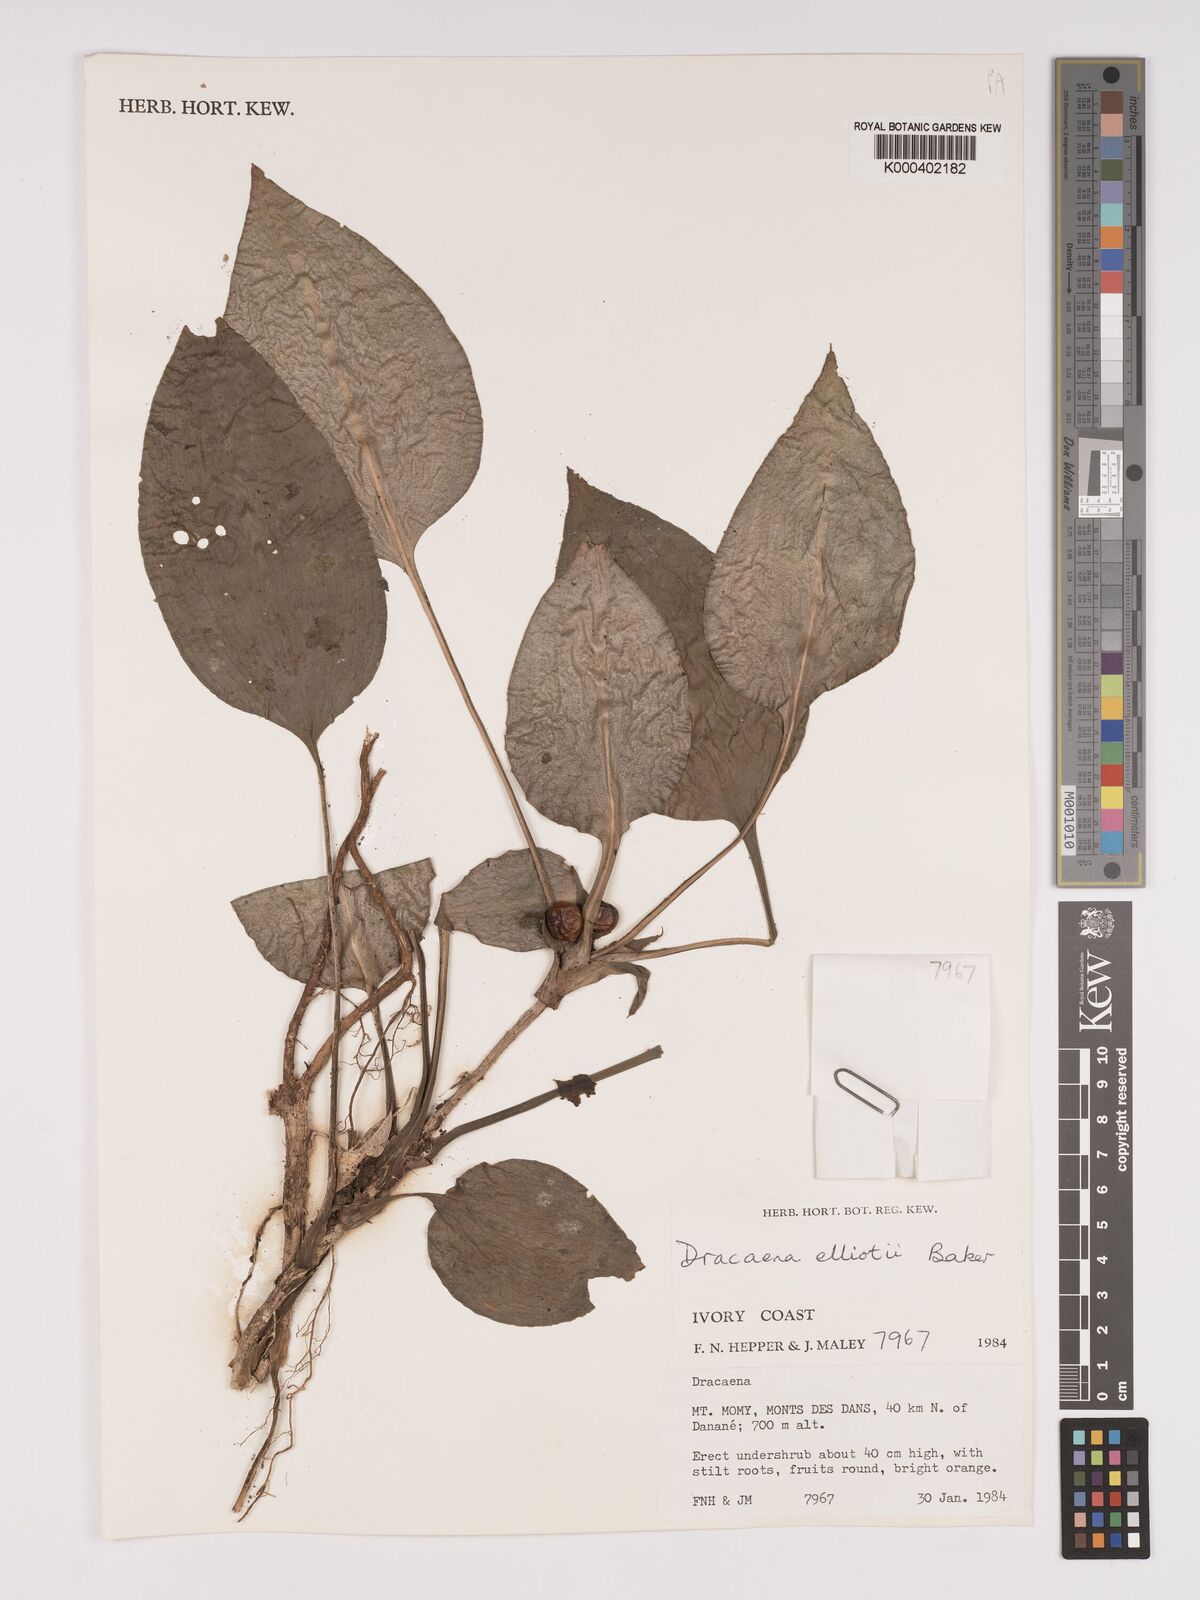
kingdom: Plantae
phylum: Tracheophyta
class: Liliopsida
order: Asparagales
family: Asparagaceae
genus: Dracaena
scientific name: Dracaena cristula
